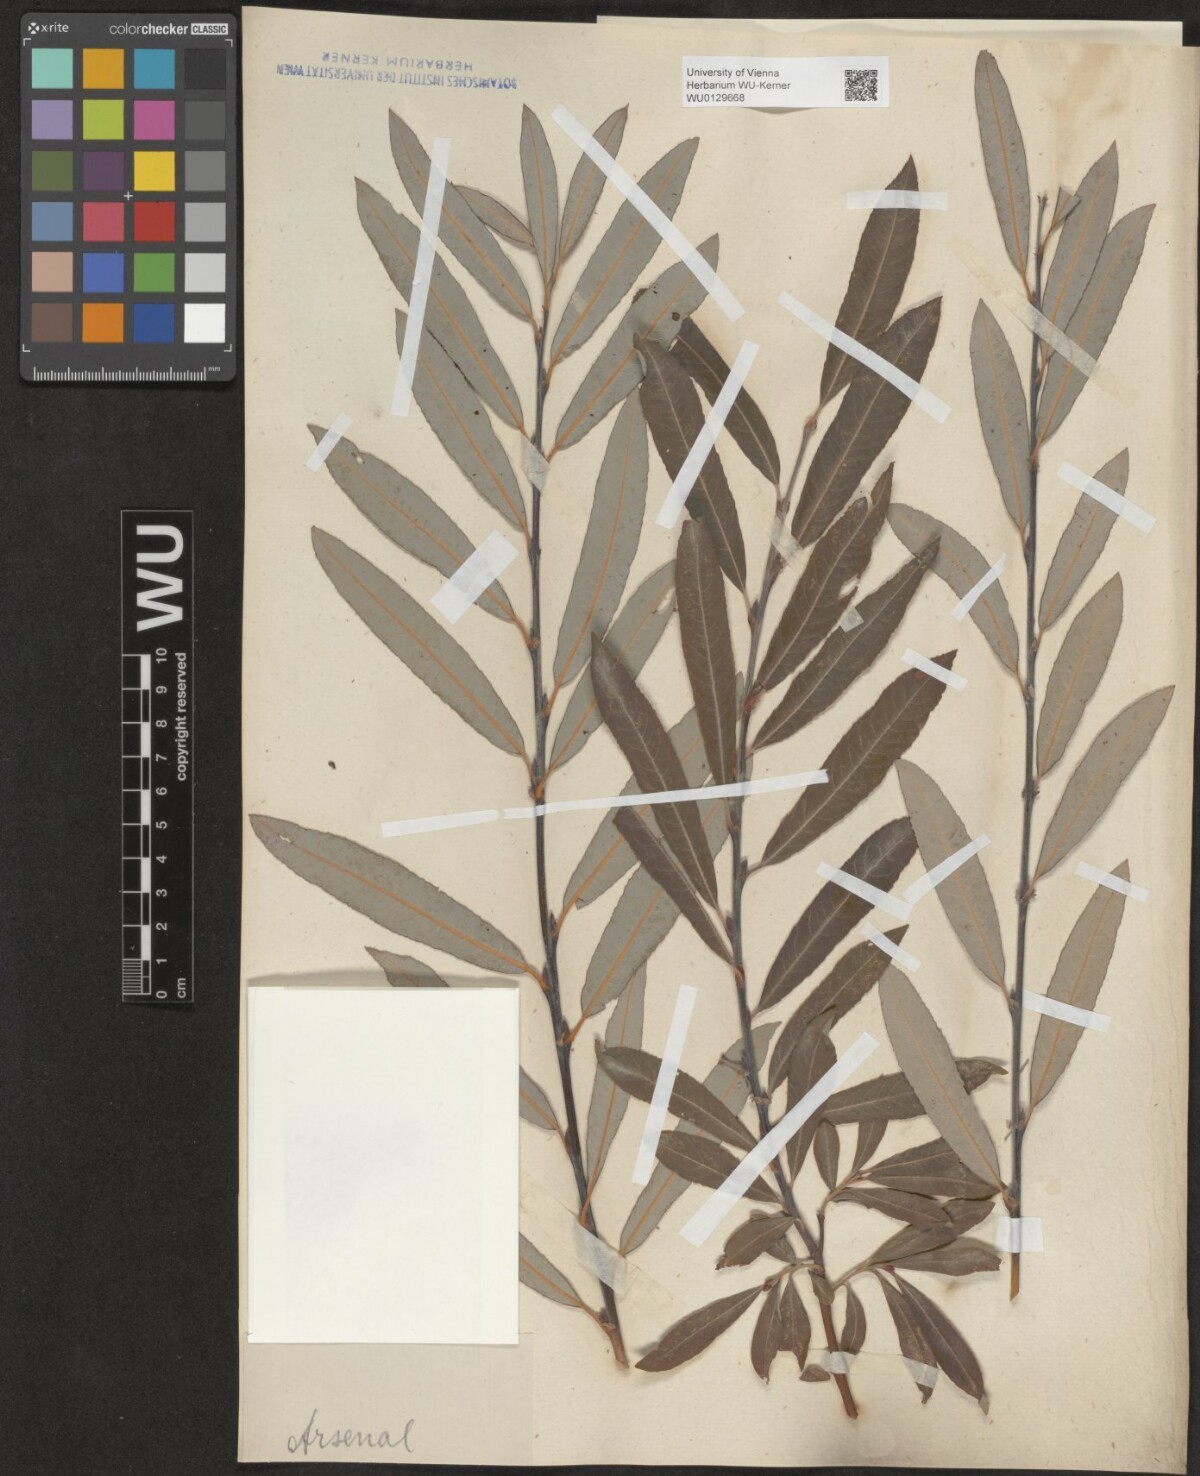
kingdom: Plantae
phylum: Tracheophyta
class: Magnoliopsida
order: Malpighiales
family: Salicaceae
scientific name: Salicaceae
